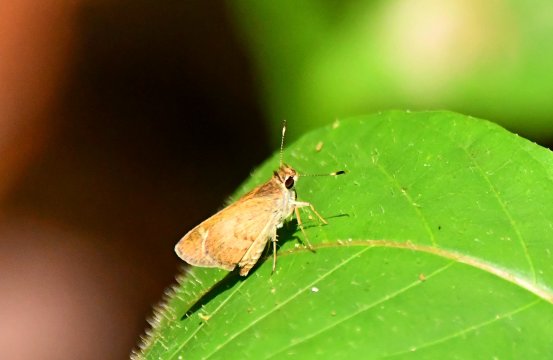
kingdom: Animalia
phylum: Arthropoda
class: Insecta
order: Lepidoptera
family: Hesperiidae
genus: Callimormus
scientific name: Callimormus saturnus
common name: Saturnus Skipper
